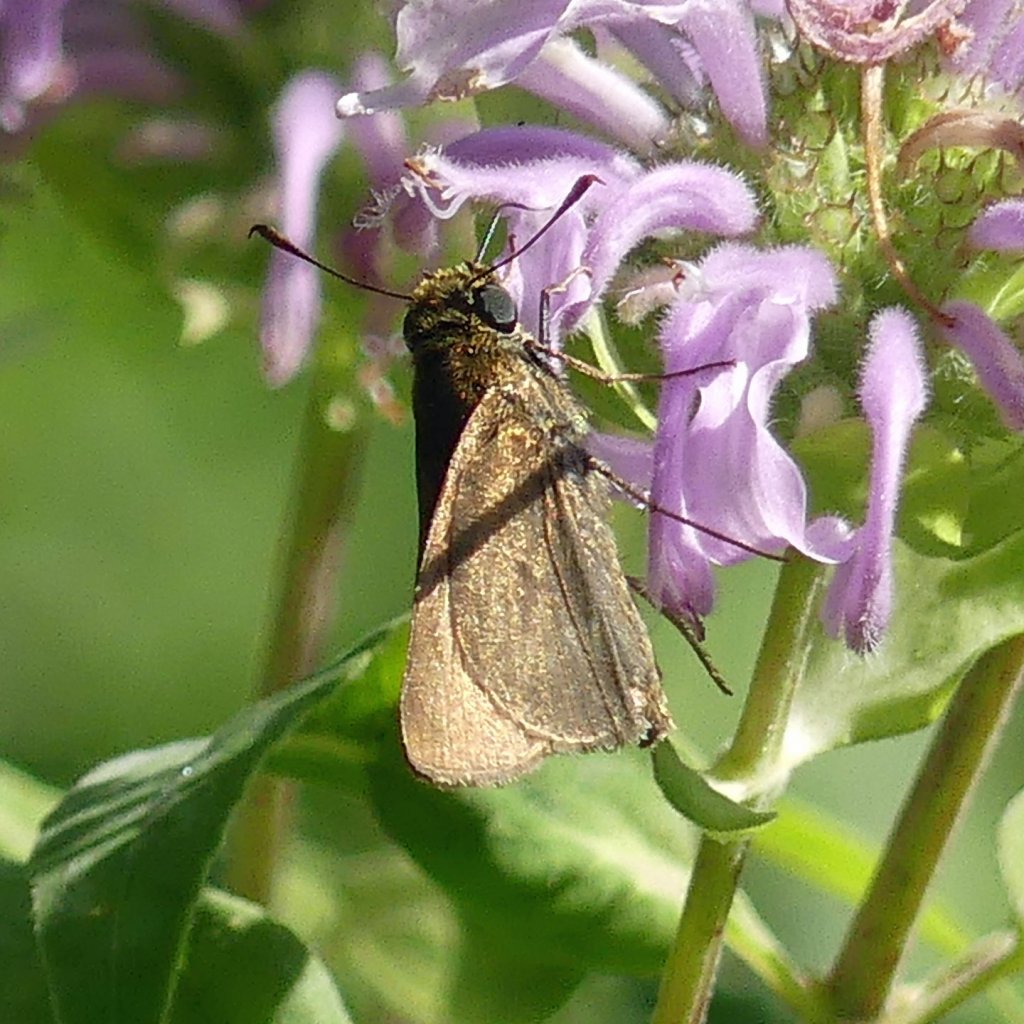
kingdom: Animalia
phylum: Arthropoda
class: Insecta
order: Lepidoptera
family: Hesperiidae
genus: Euphyes
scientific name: Euphyes vestris
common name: Dun Skipper
